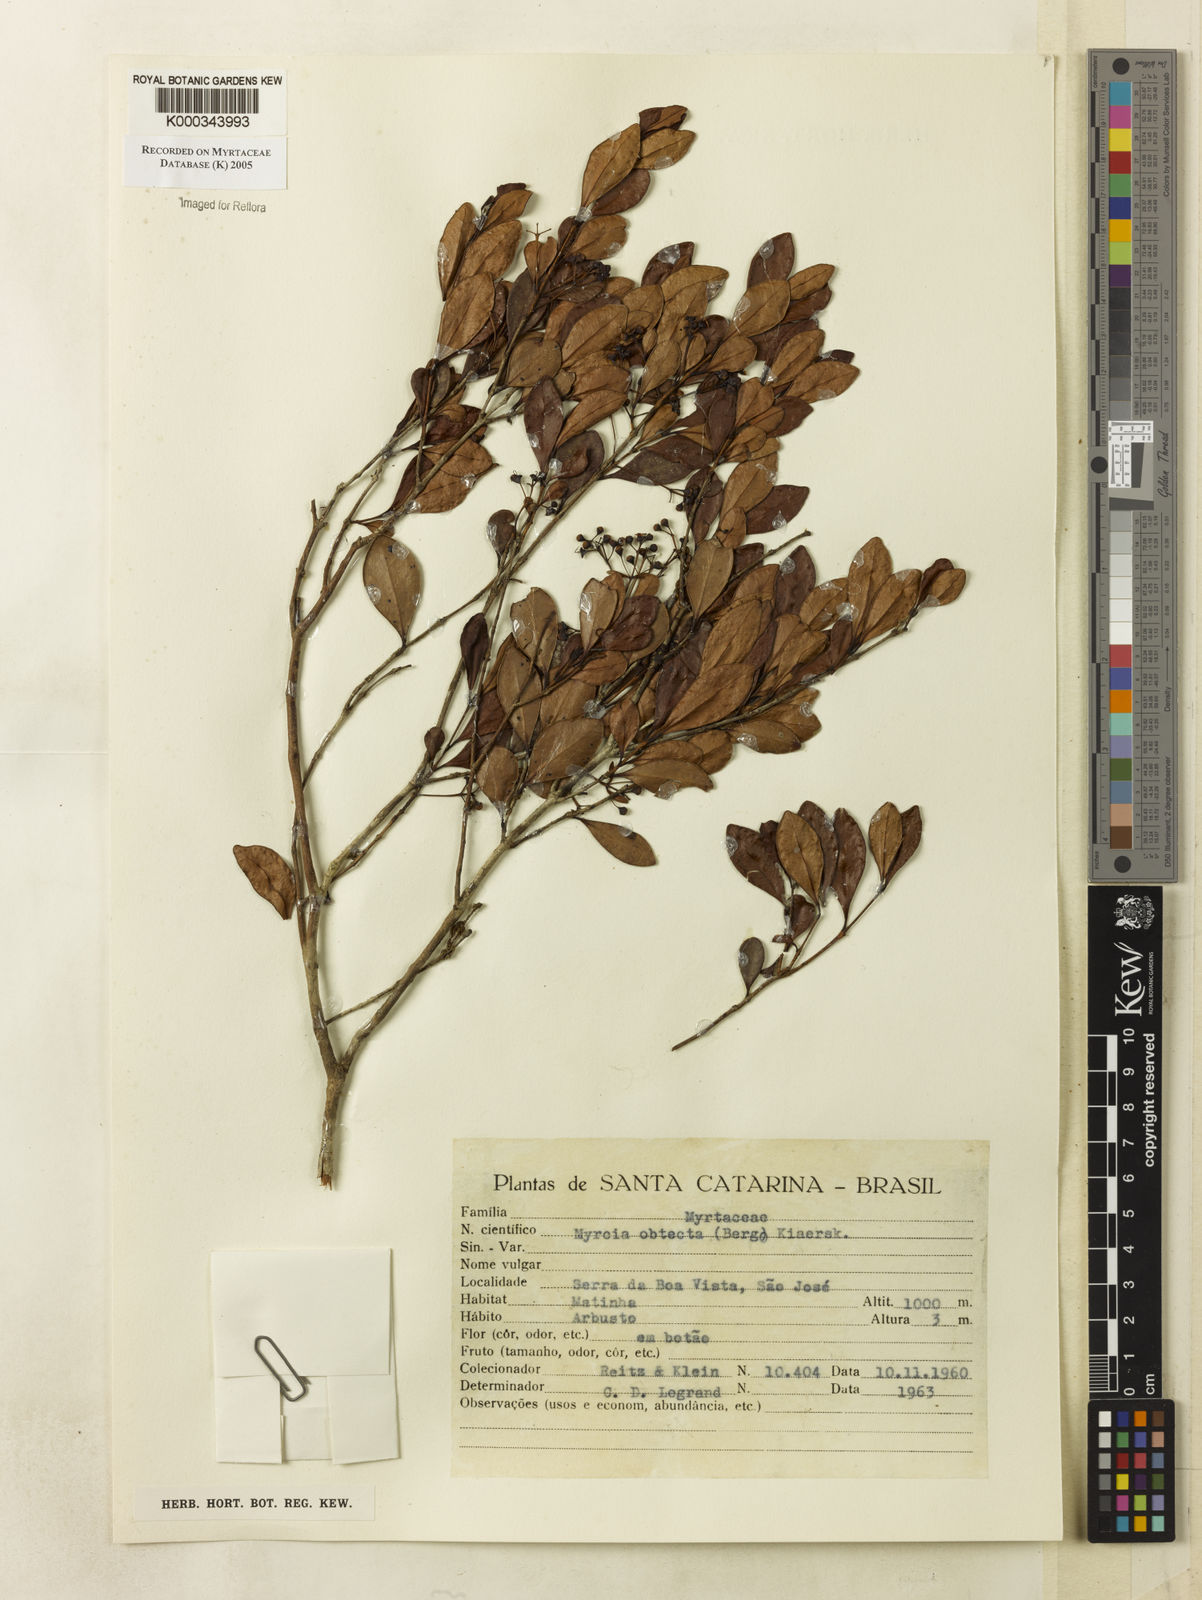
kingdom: Plantae
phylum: Tracheophyta
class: Magnoliopsida
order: Myrtales
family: Myrtaceae
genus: Myrcia
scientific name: Myrcia guianensis
